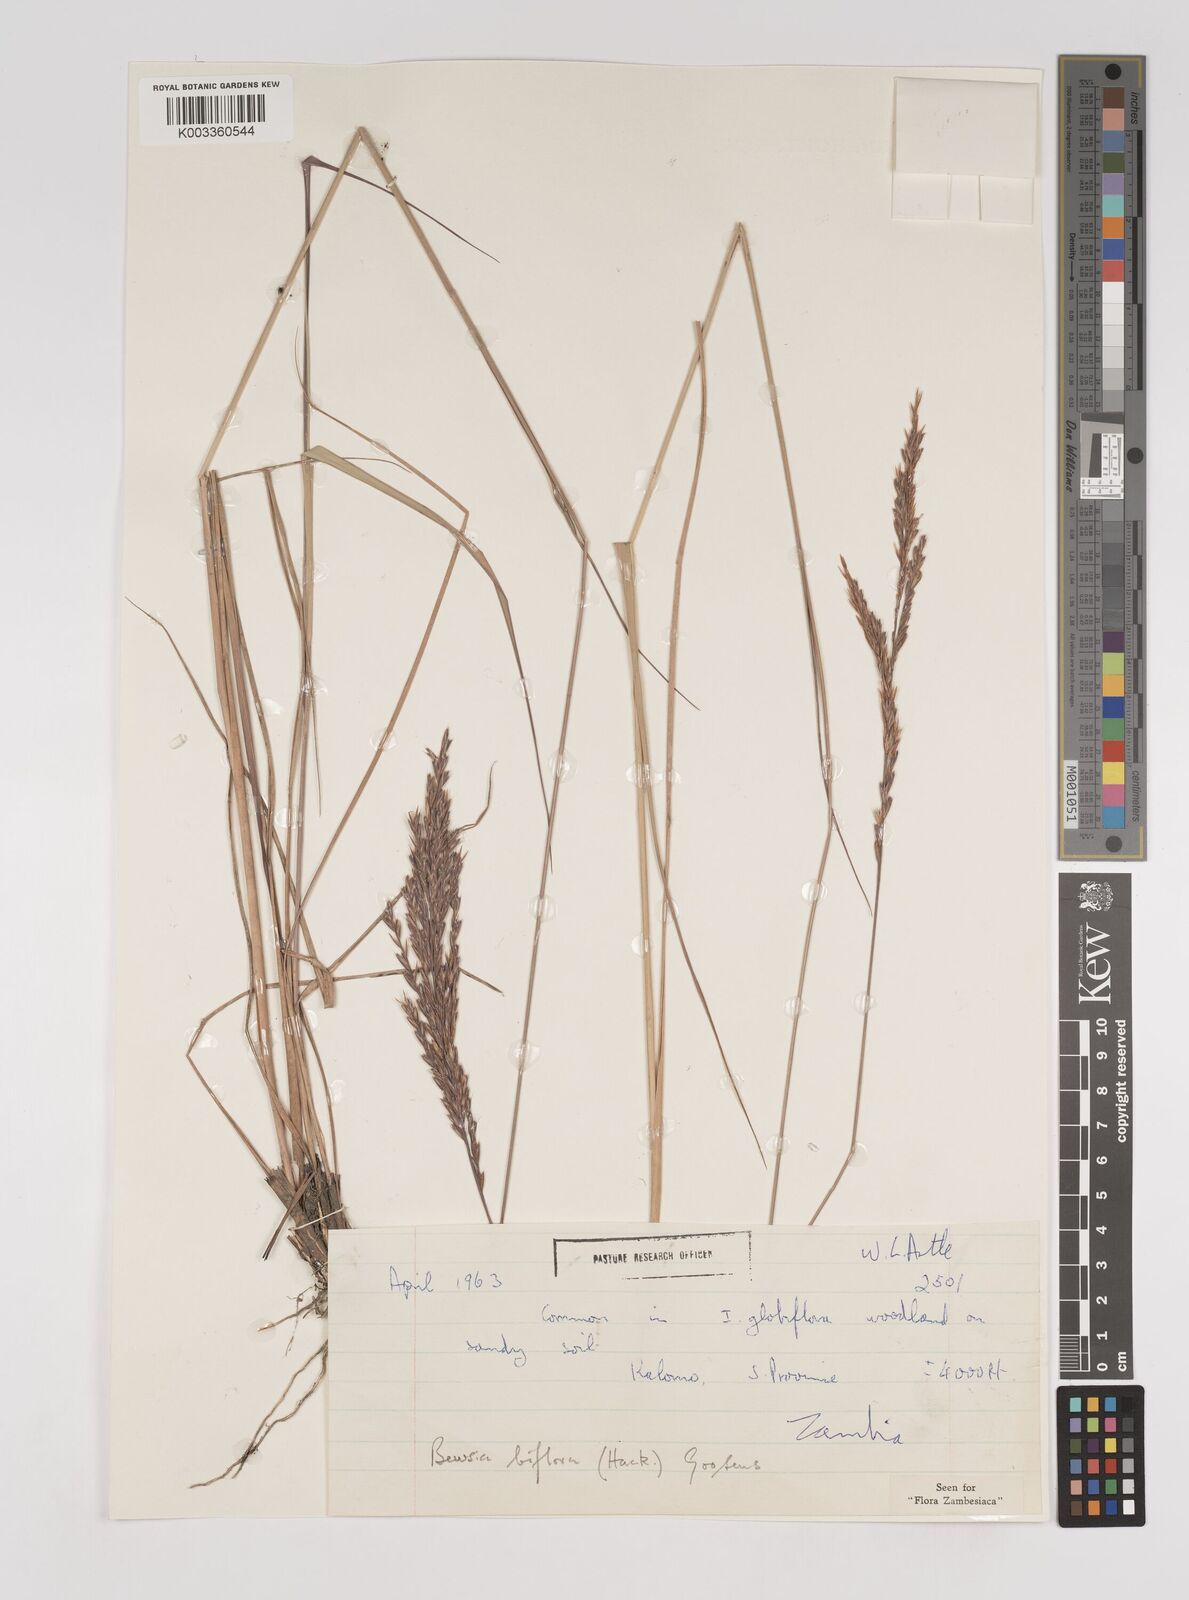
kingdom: Plantae
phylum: Tracheophyta
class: Liliopsida
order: Poales
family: Poaceae
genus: Bewsia
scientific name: Bewsia biflora
